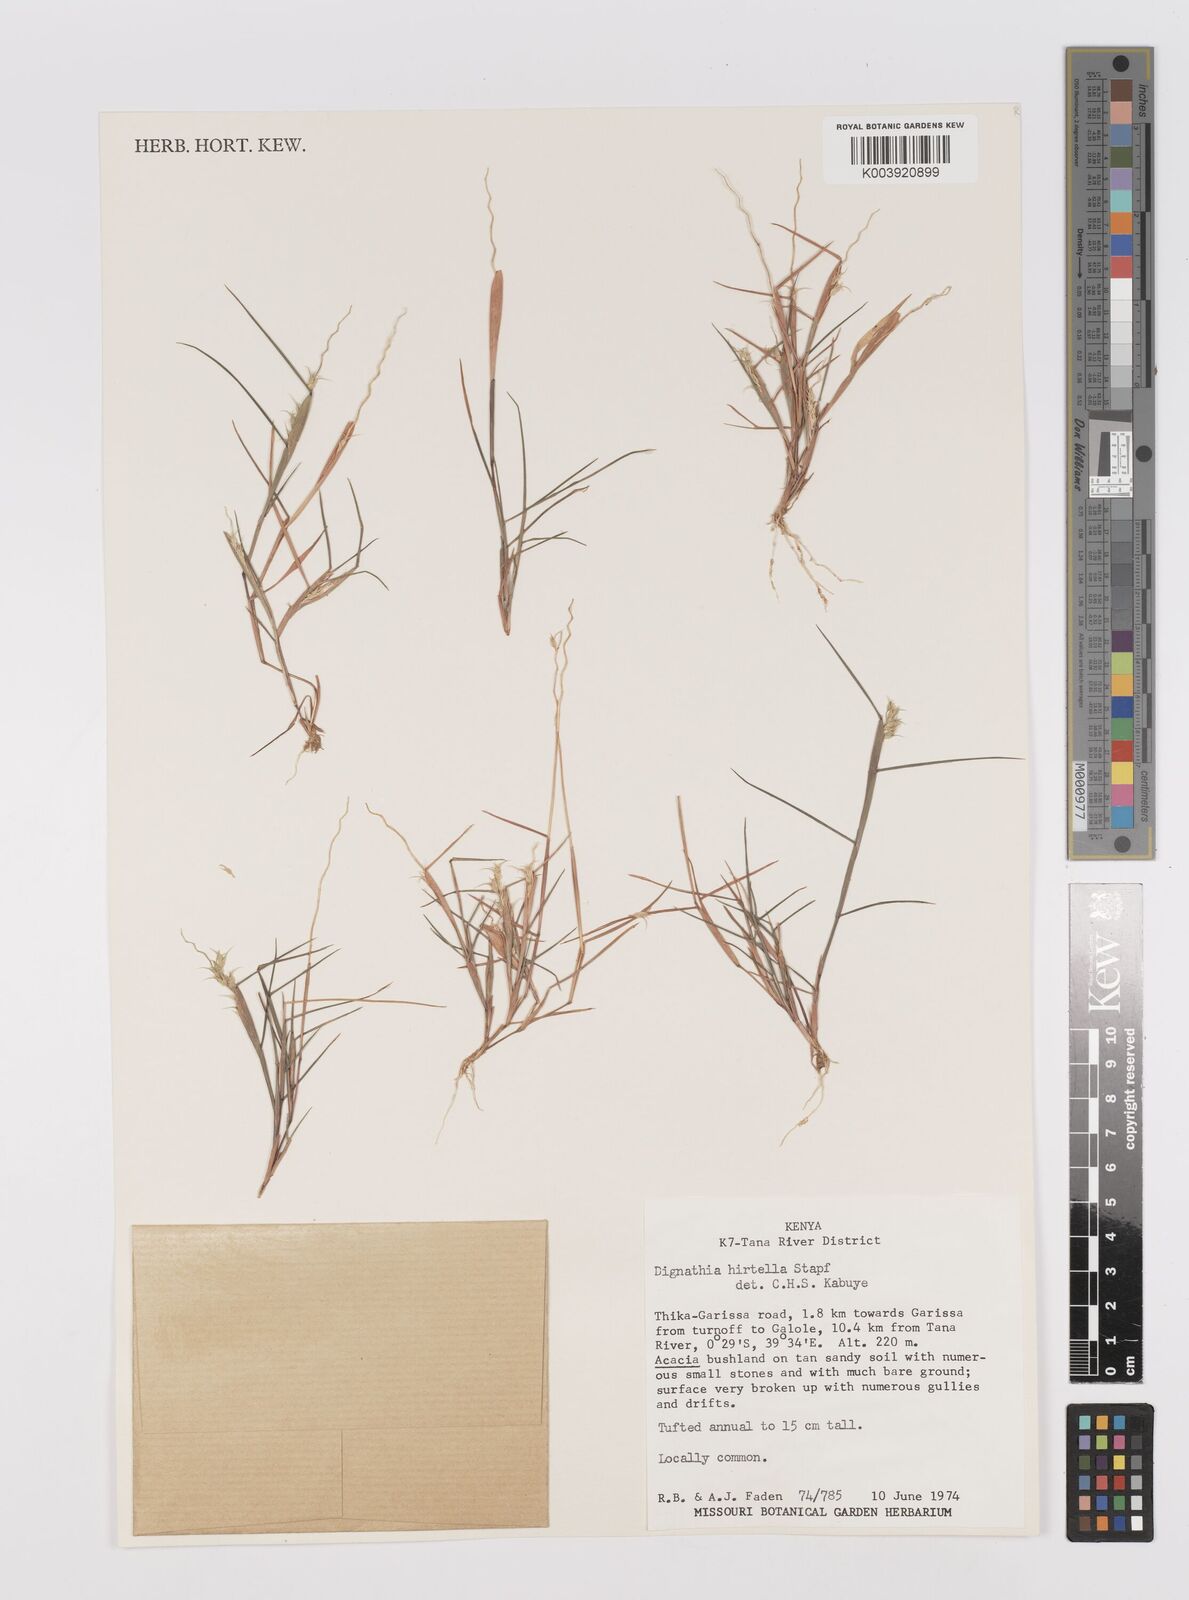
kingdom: Plantae
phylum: Tracheophyta
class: Liliopsida
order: Poales
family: Poaceae
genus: Dignathia
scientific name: Dignathia hirtella
